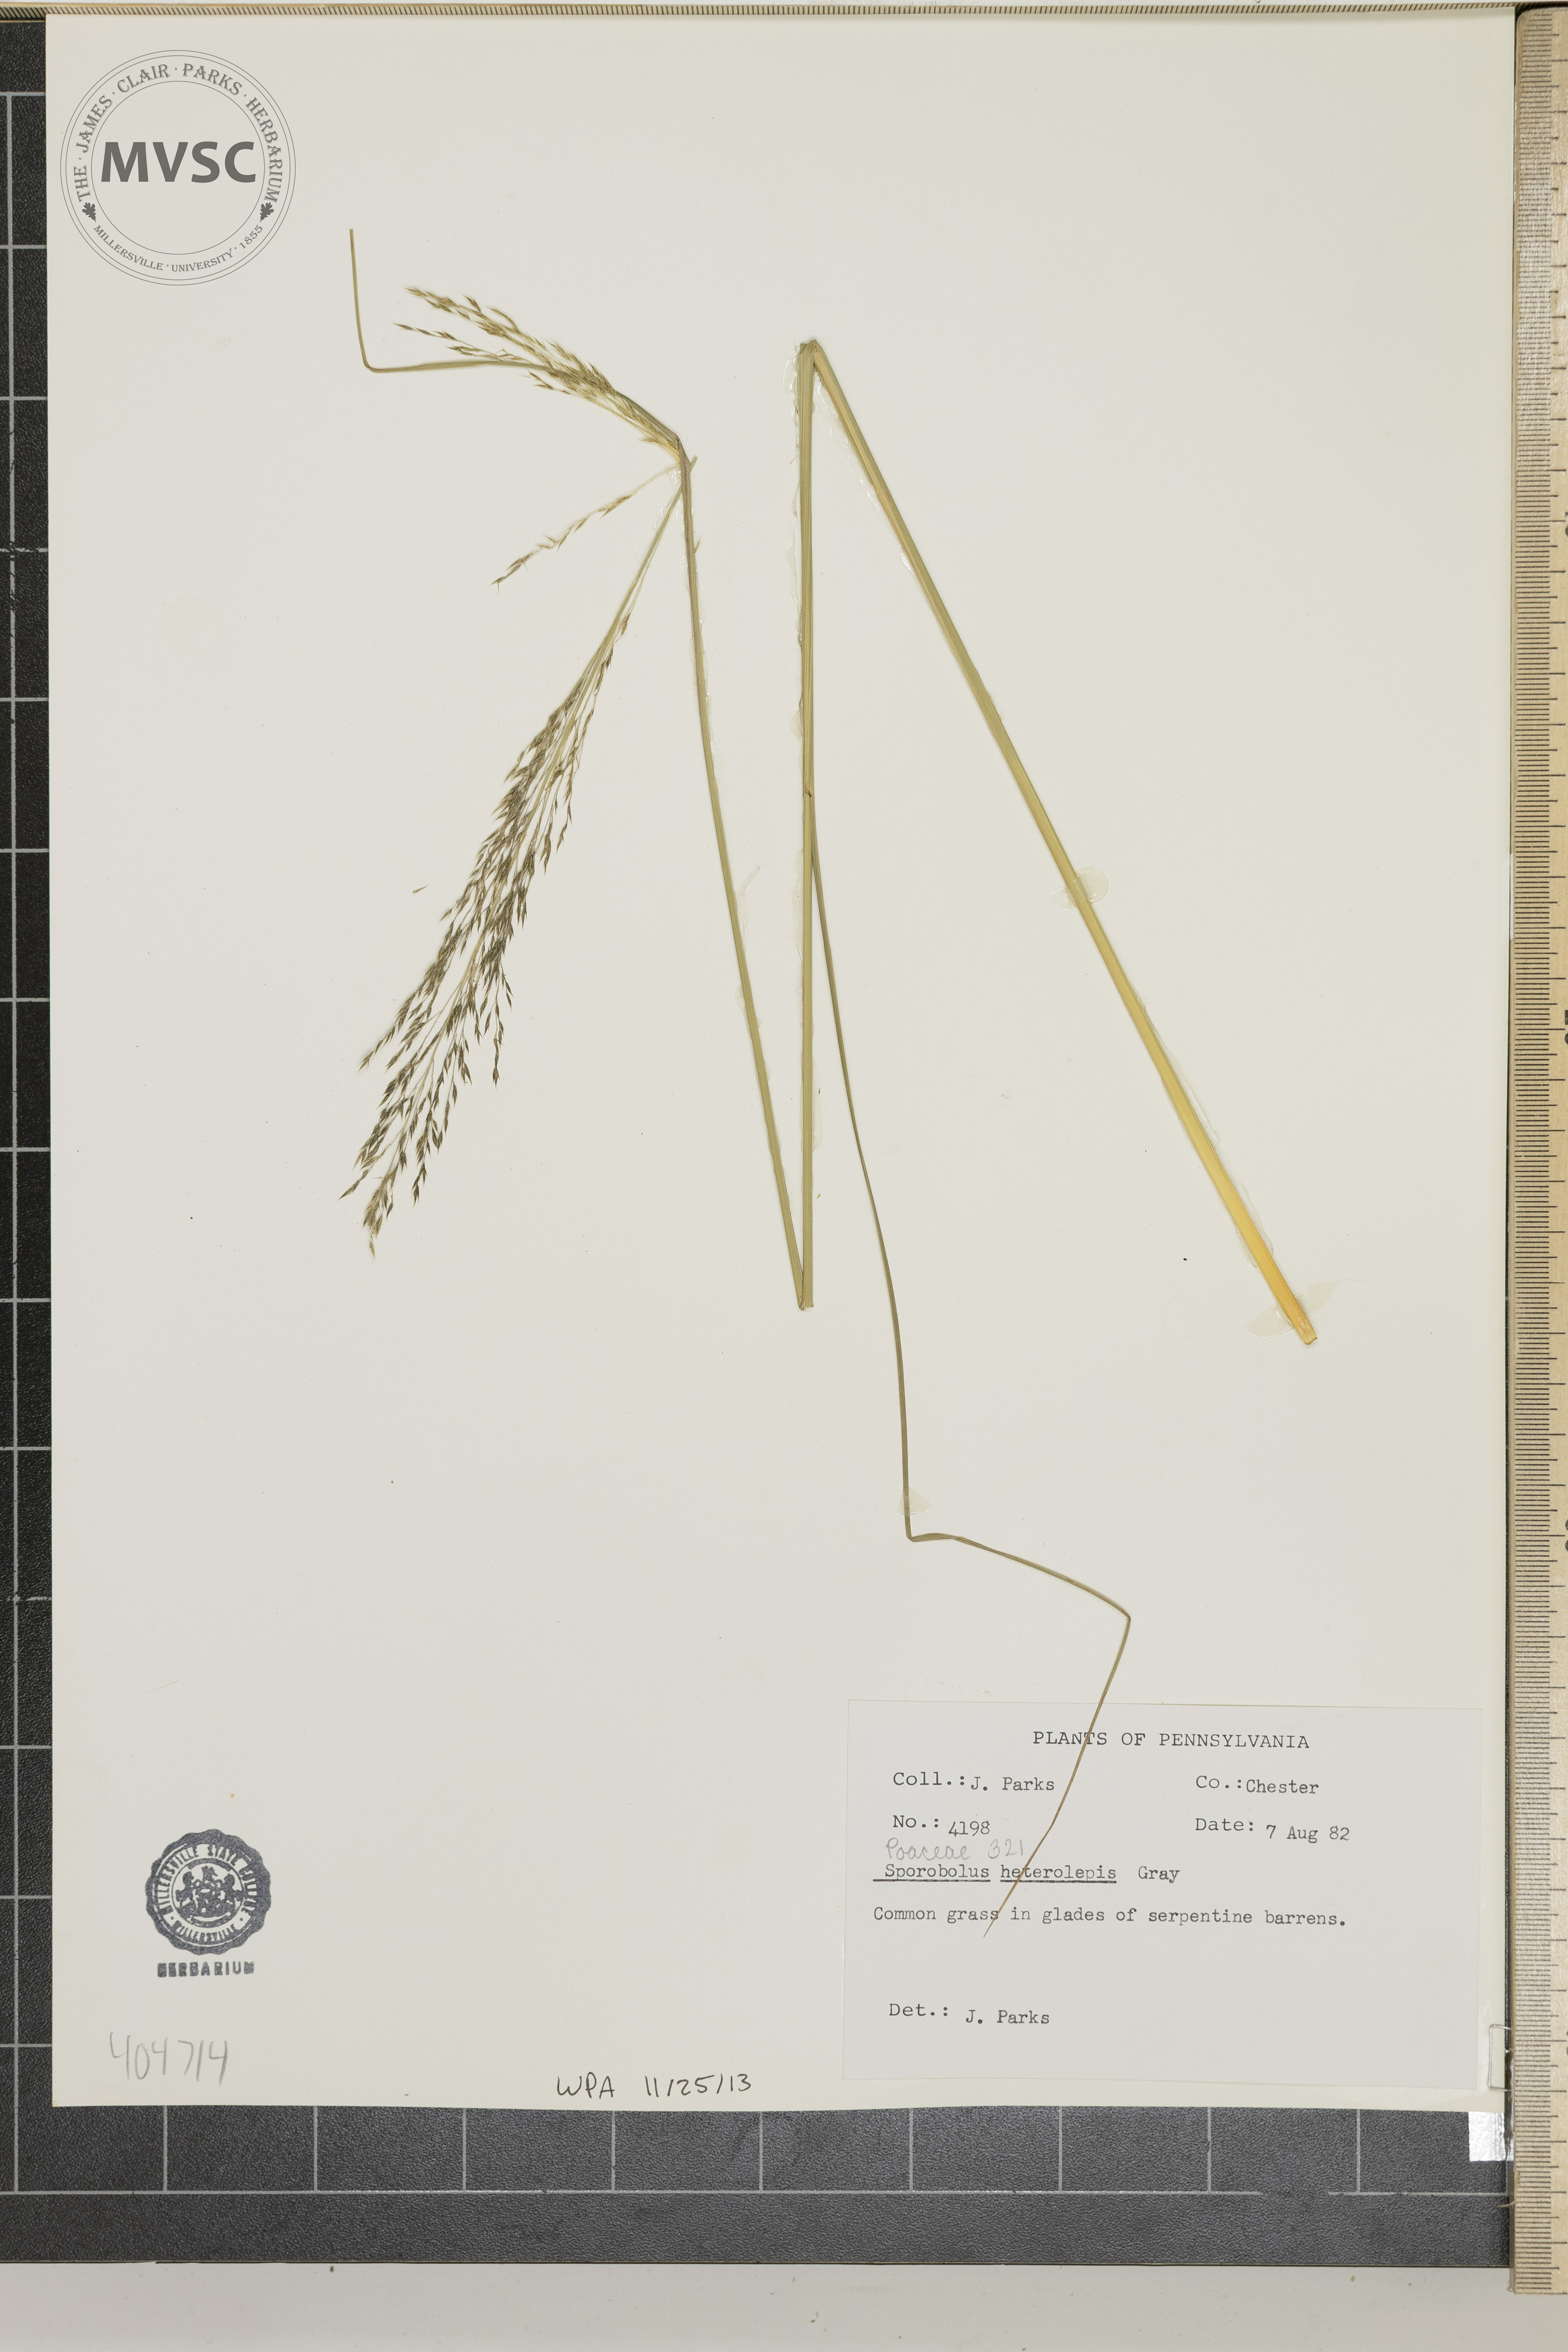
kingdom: Plantae
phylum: Tracheophyta
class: Liliopsida
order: Poales
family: Poaceae
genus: Sporobolus
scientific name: Sporobolus heterolepis
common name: Prairie dropseed
